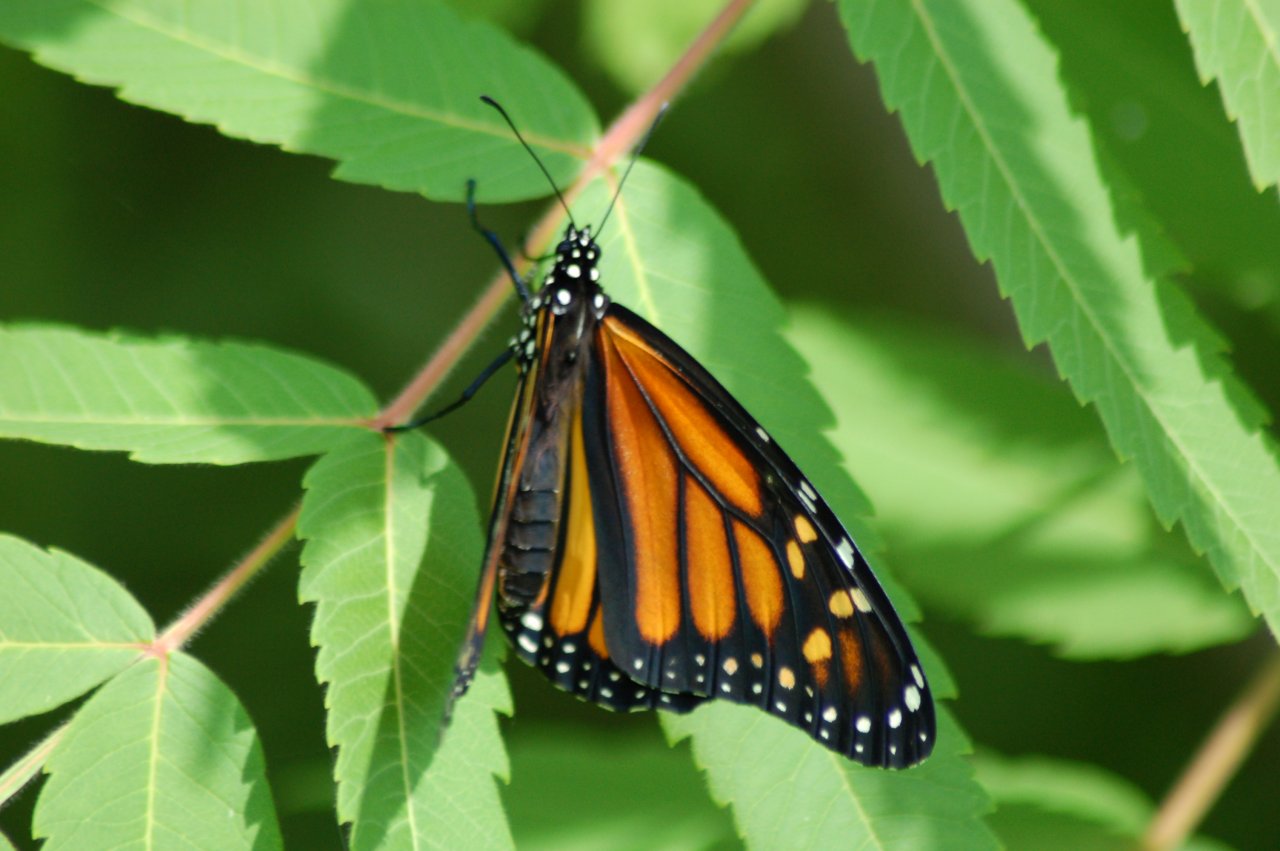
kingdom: Animalia
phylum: Arthropoda
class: Insecta
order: Lepidoptera
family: Nymphalidae
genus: Danaus
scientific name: Danaus plexippus
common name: Monarch
